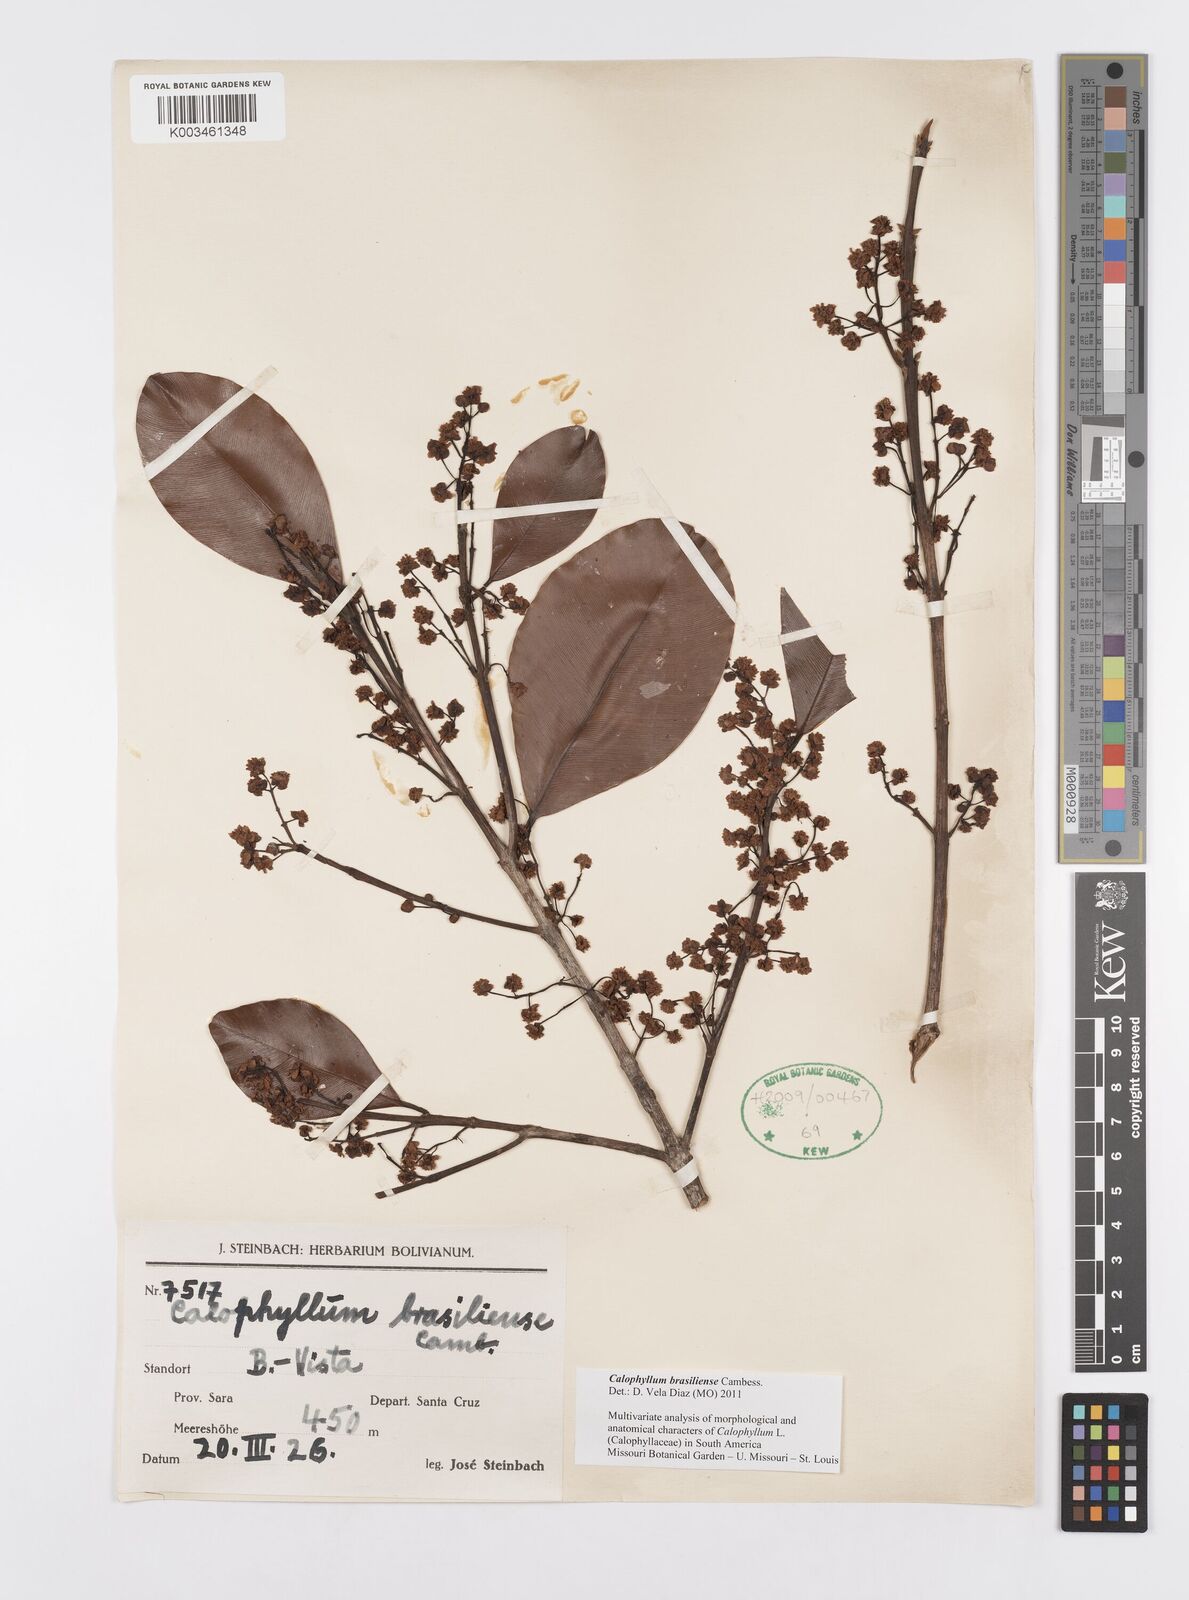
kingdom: Plantae
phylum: Tracheophyta
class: Magnoliopsida
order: Malpighiales
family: Calophyllaceae
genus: Calophyllum
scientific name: Calophyllum brasiliense
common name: Santa maria
